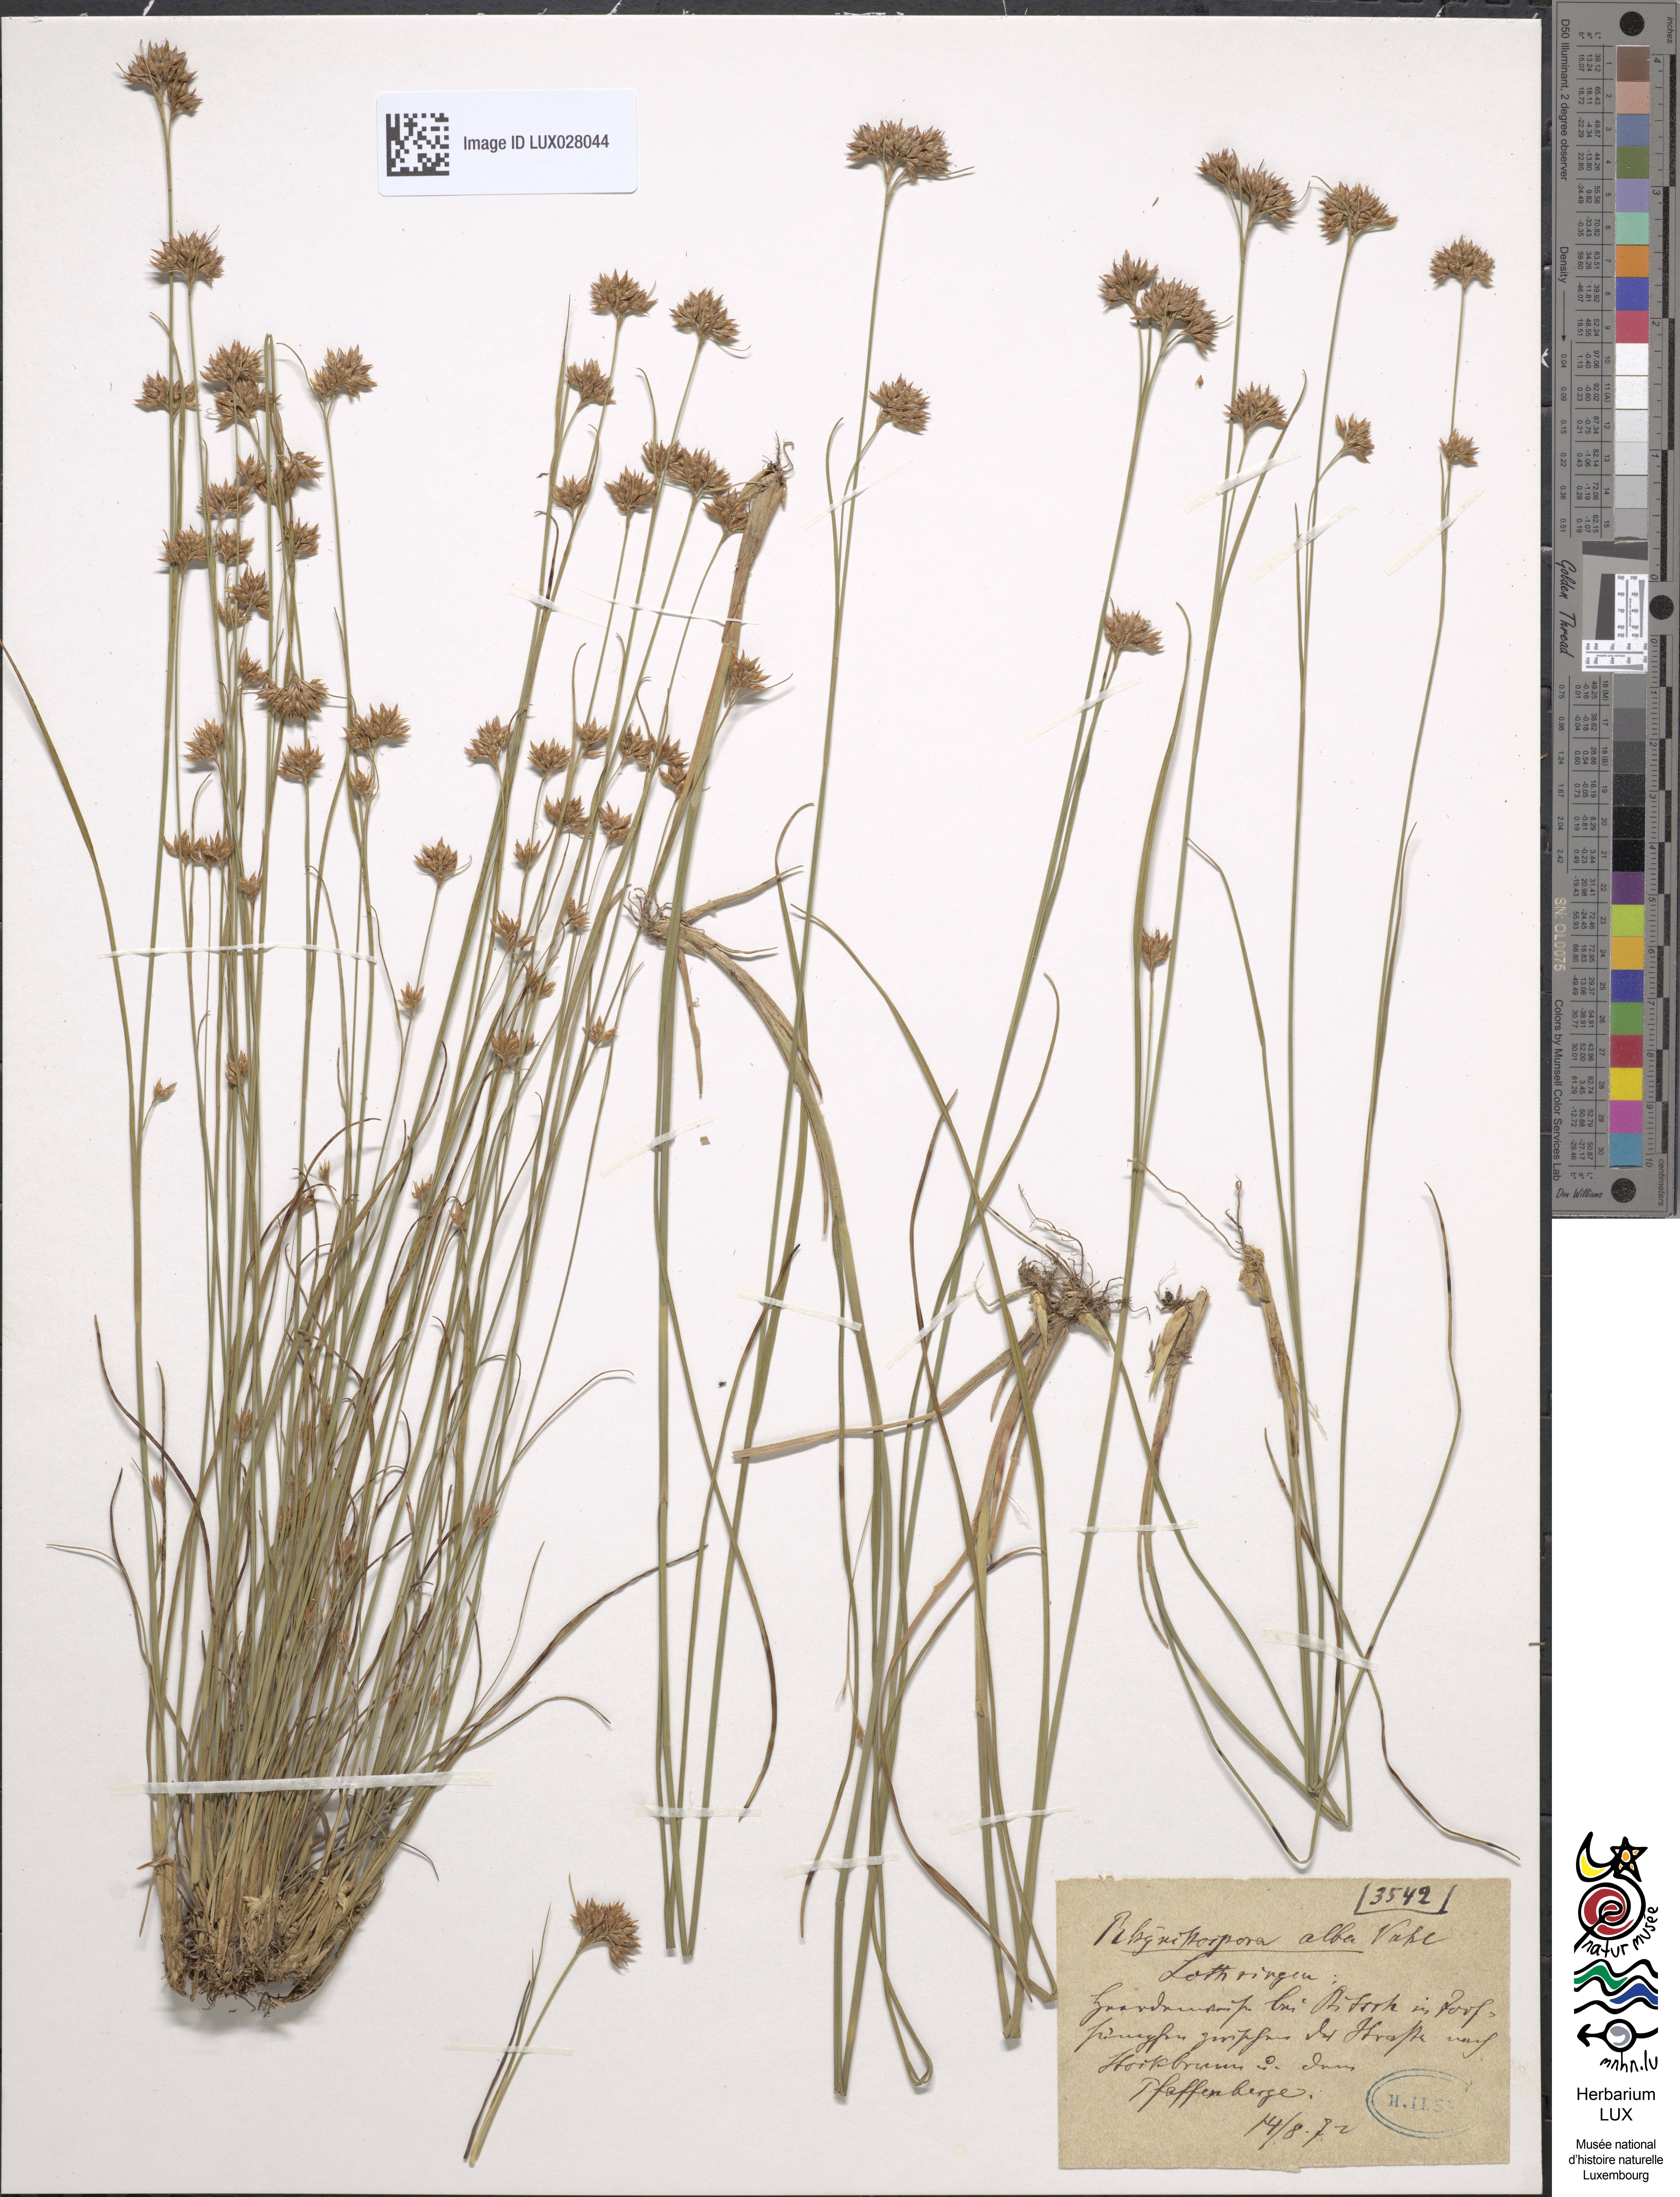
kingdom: Plantae
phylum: Tracheophyta
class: Liliopsida
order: Poales
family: Cyperaceae
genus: Rhynchospora
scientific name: Rhynchospora alba
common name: White beak-sedge
